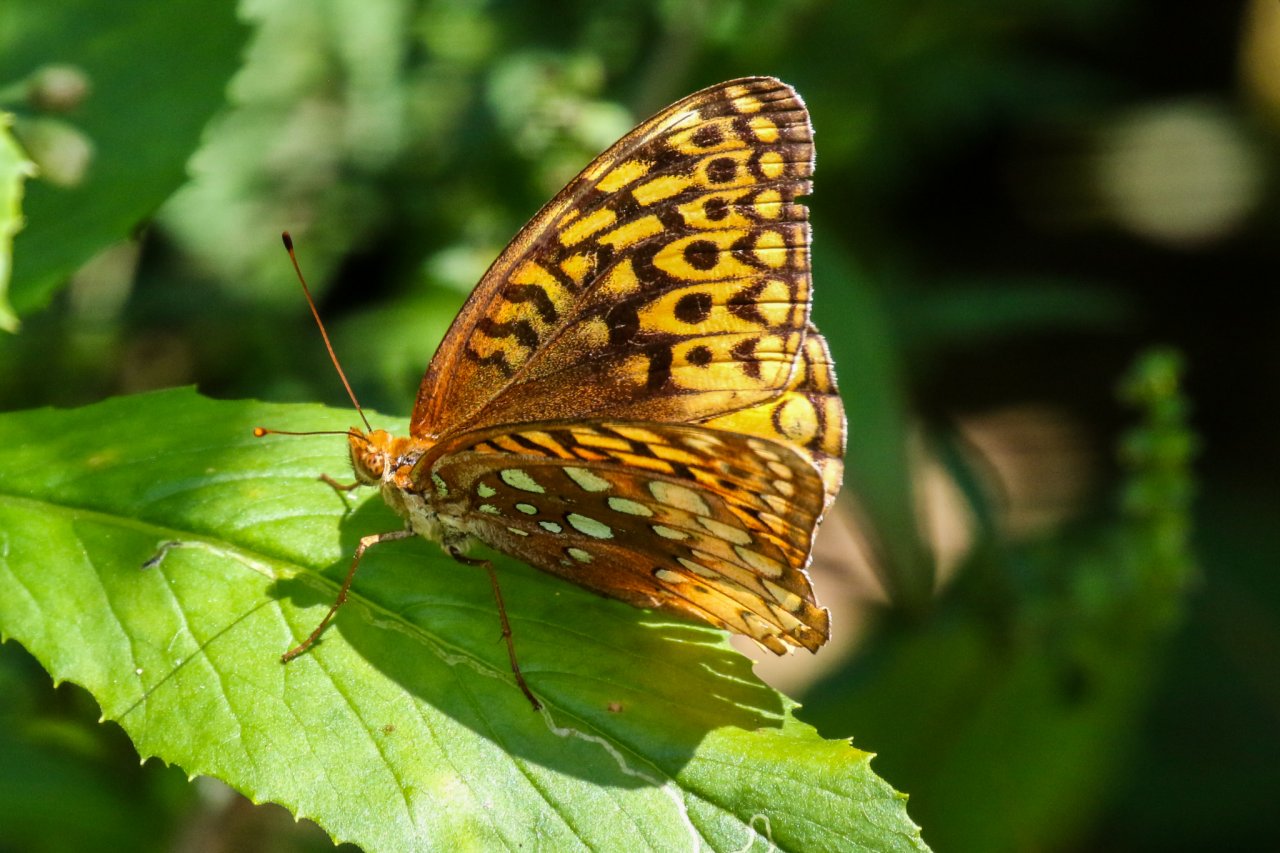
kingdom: Animalia
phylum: Arthropoda
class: Insecta
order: Lepidoptera
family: Nymphalidae
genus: Speyeria
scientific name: Speyeria cybele
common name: Great Spangled Fritillary
